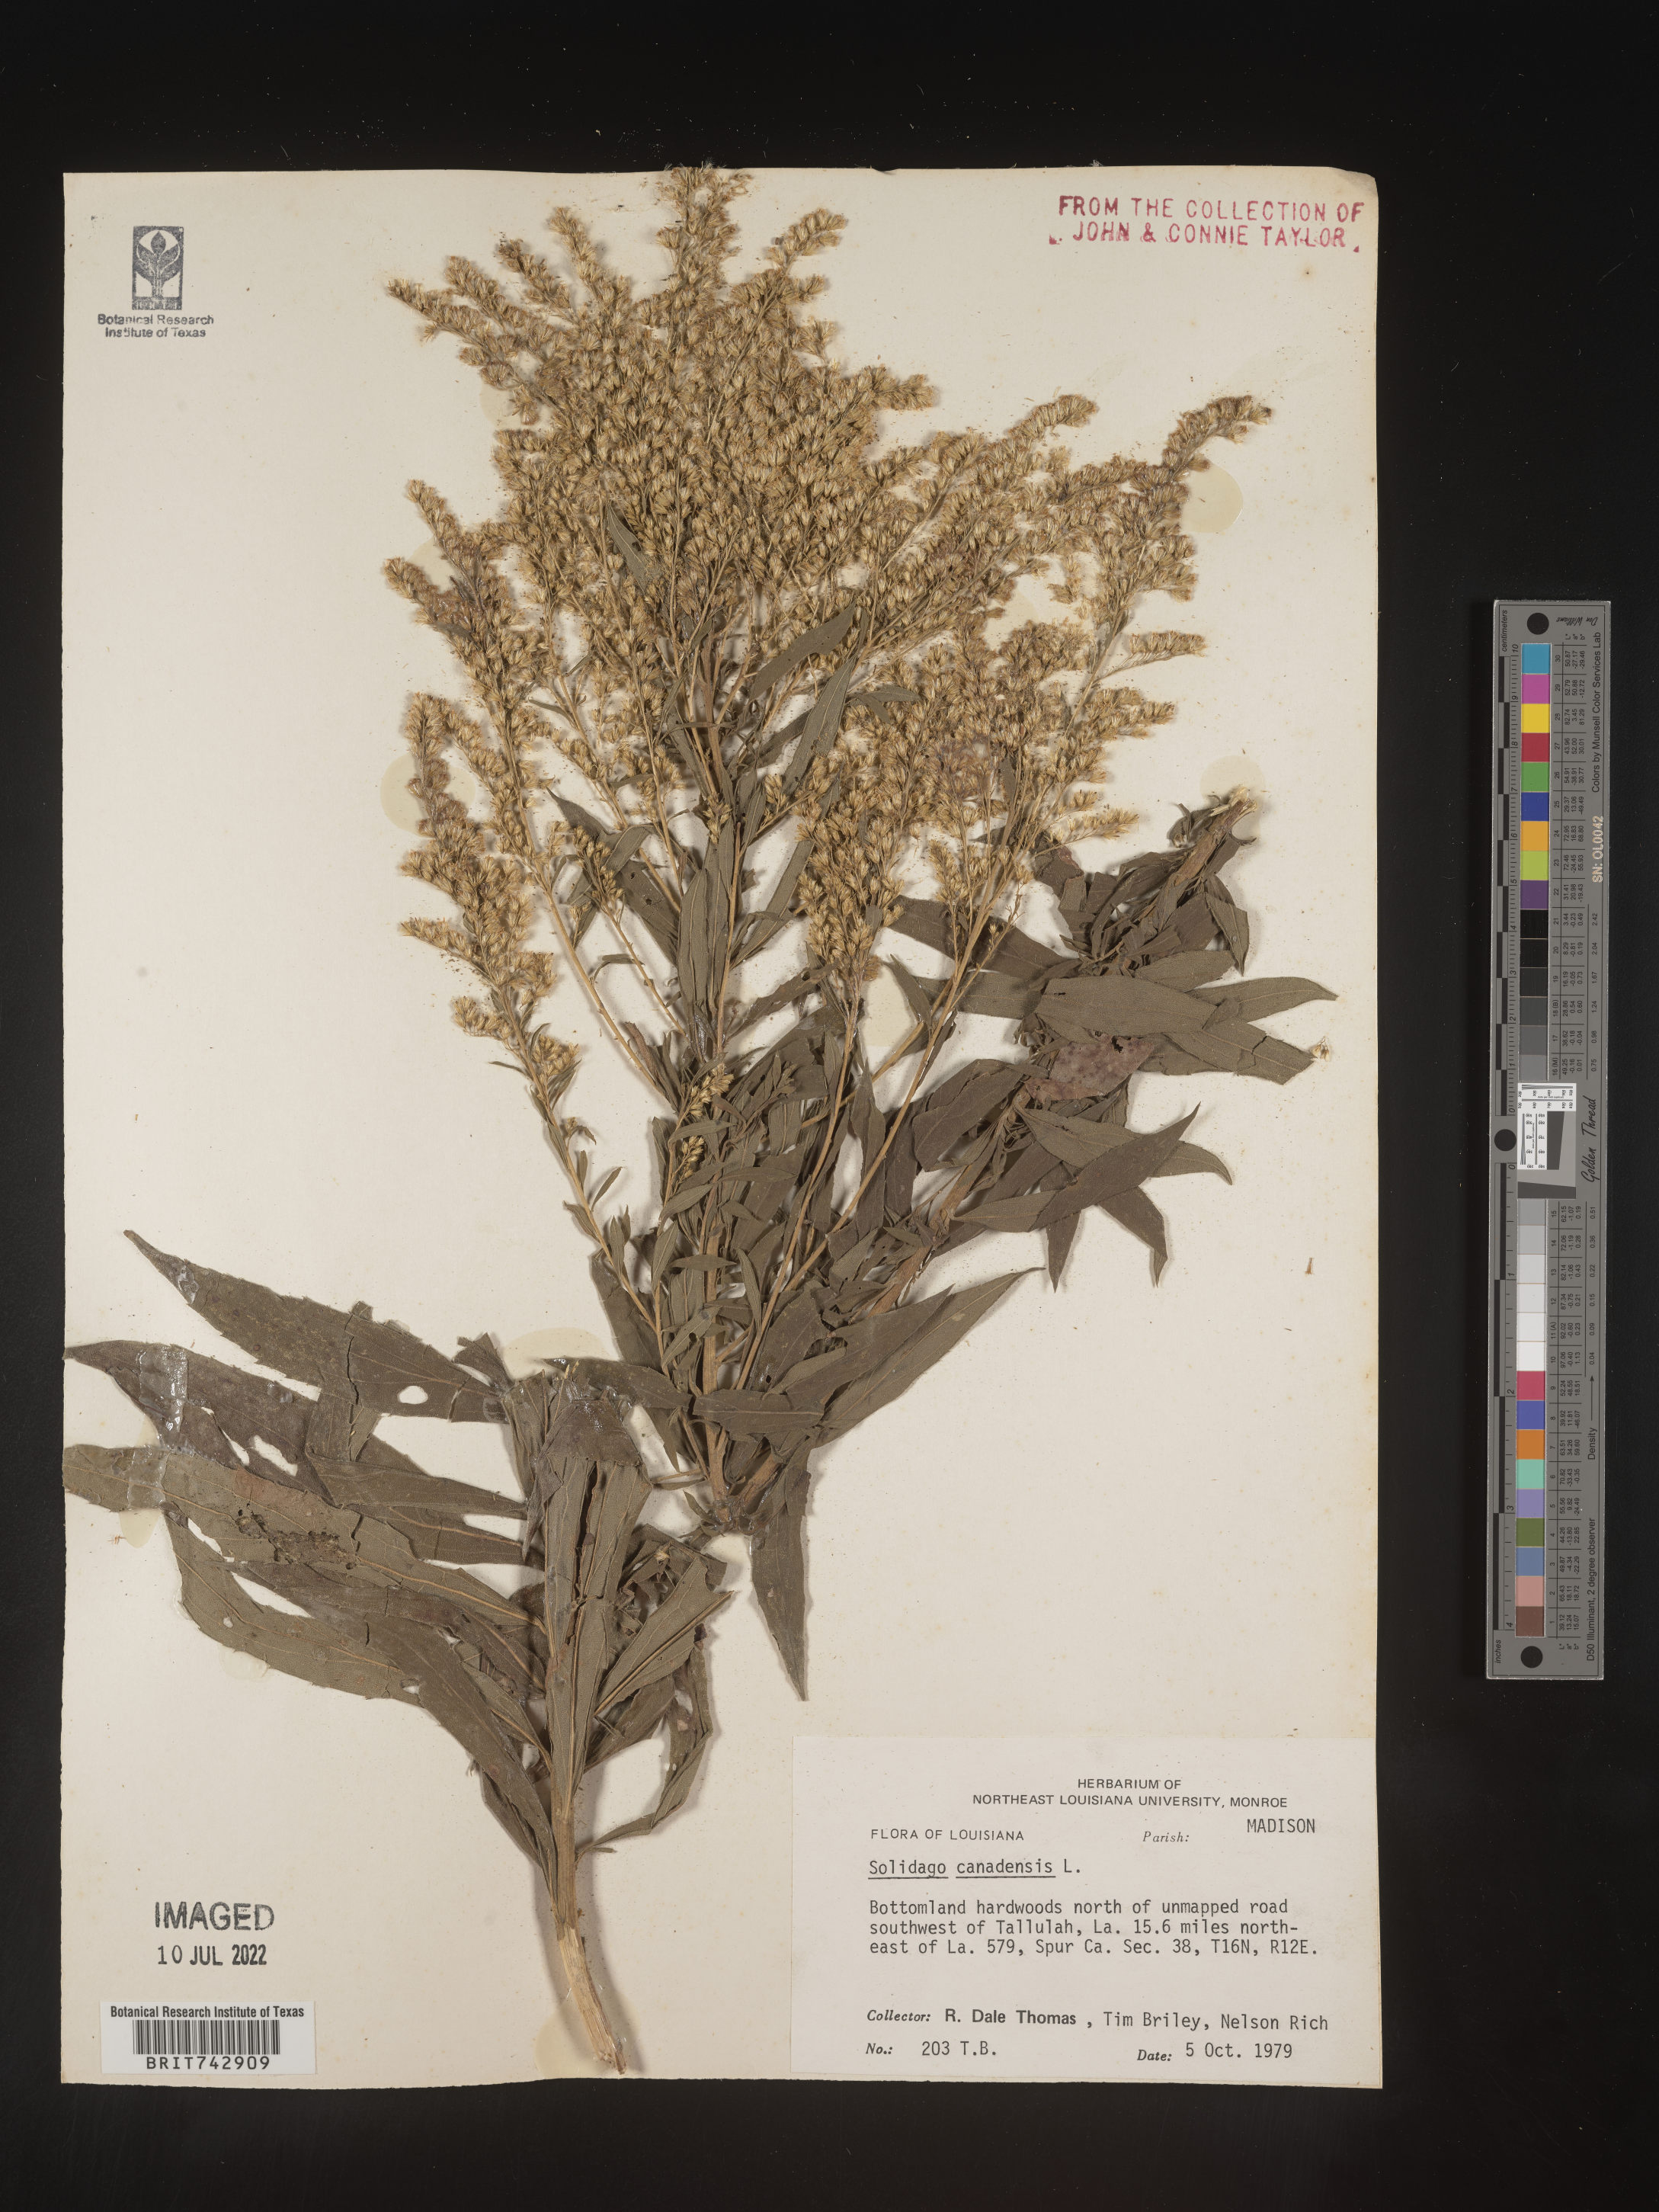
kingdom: Plantae
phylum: Tracheophyta
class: Magnoliopsida
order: Asterales
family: Asteraceae
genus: Solidago
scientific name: Solidago altissima
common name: Late goldenrod
